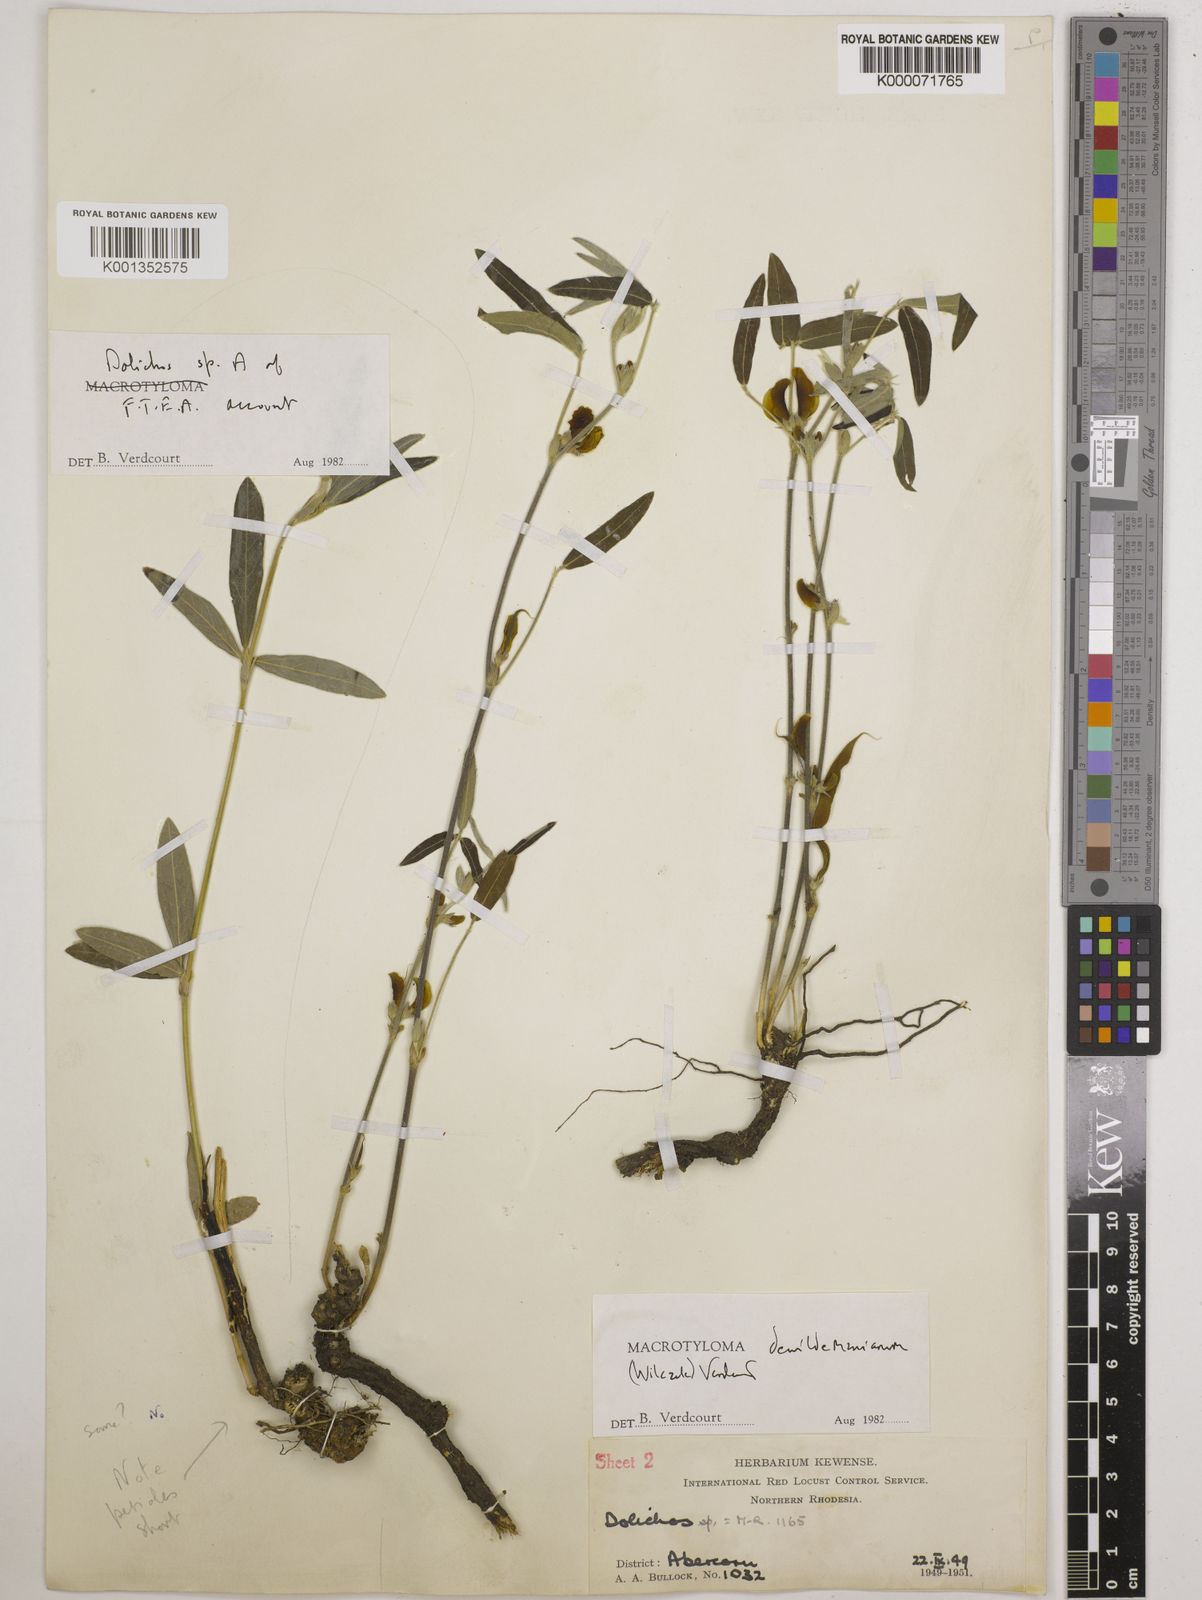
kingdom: Plantae
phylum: Tracheophyta
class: Magnoliopsida
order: Fabales
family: Fabaceae
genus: Macrotyloma
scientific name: Macrotyloma dewildemanianum
